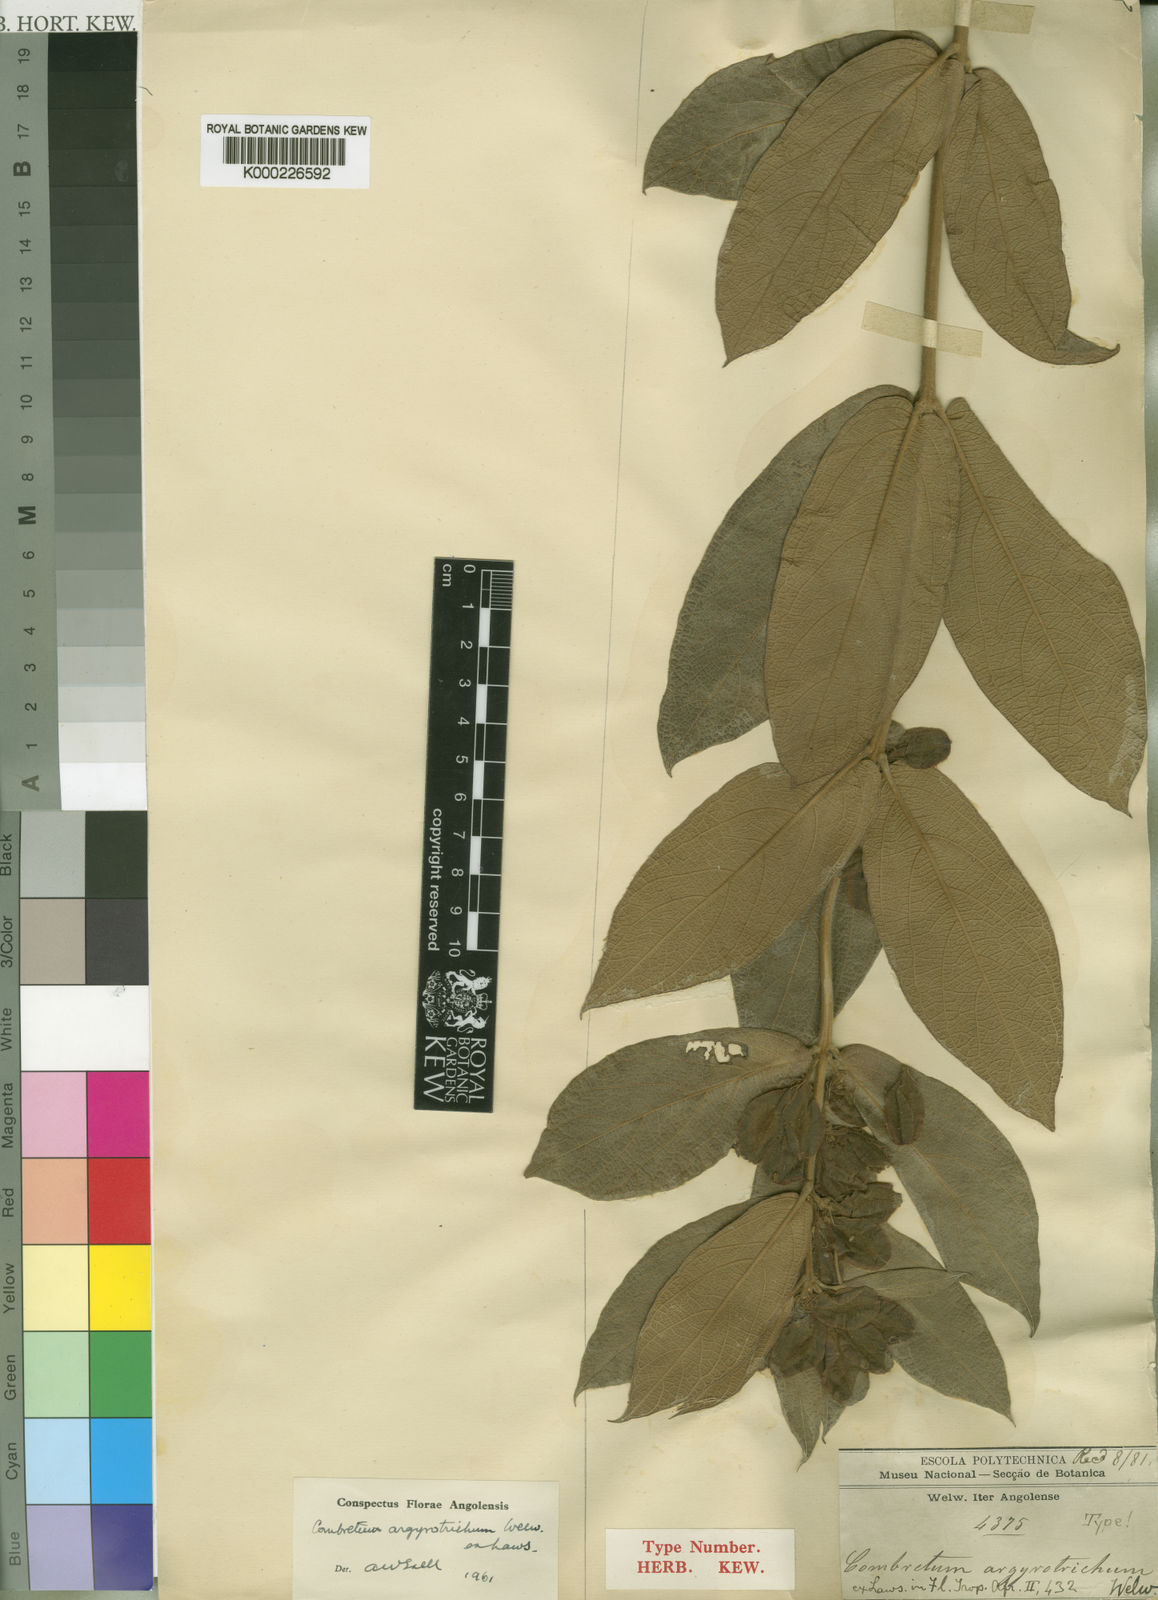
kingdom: Plantae
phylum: Tracheophyta
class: Magnoliopsida
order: Myrtales
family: Combretaceae
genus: Combretum
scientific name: Combretum argyrotrichum
